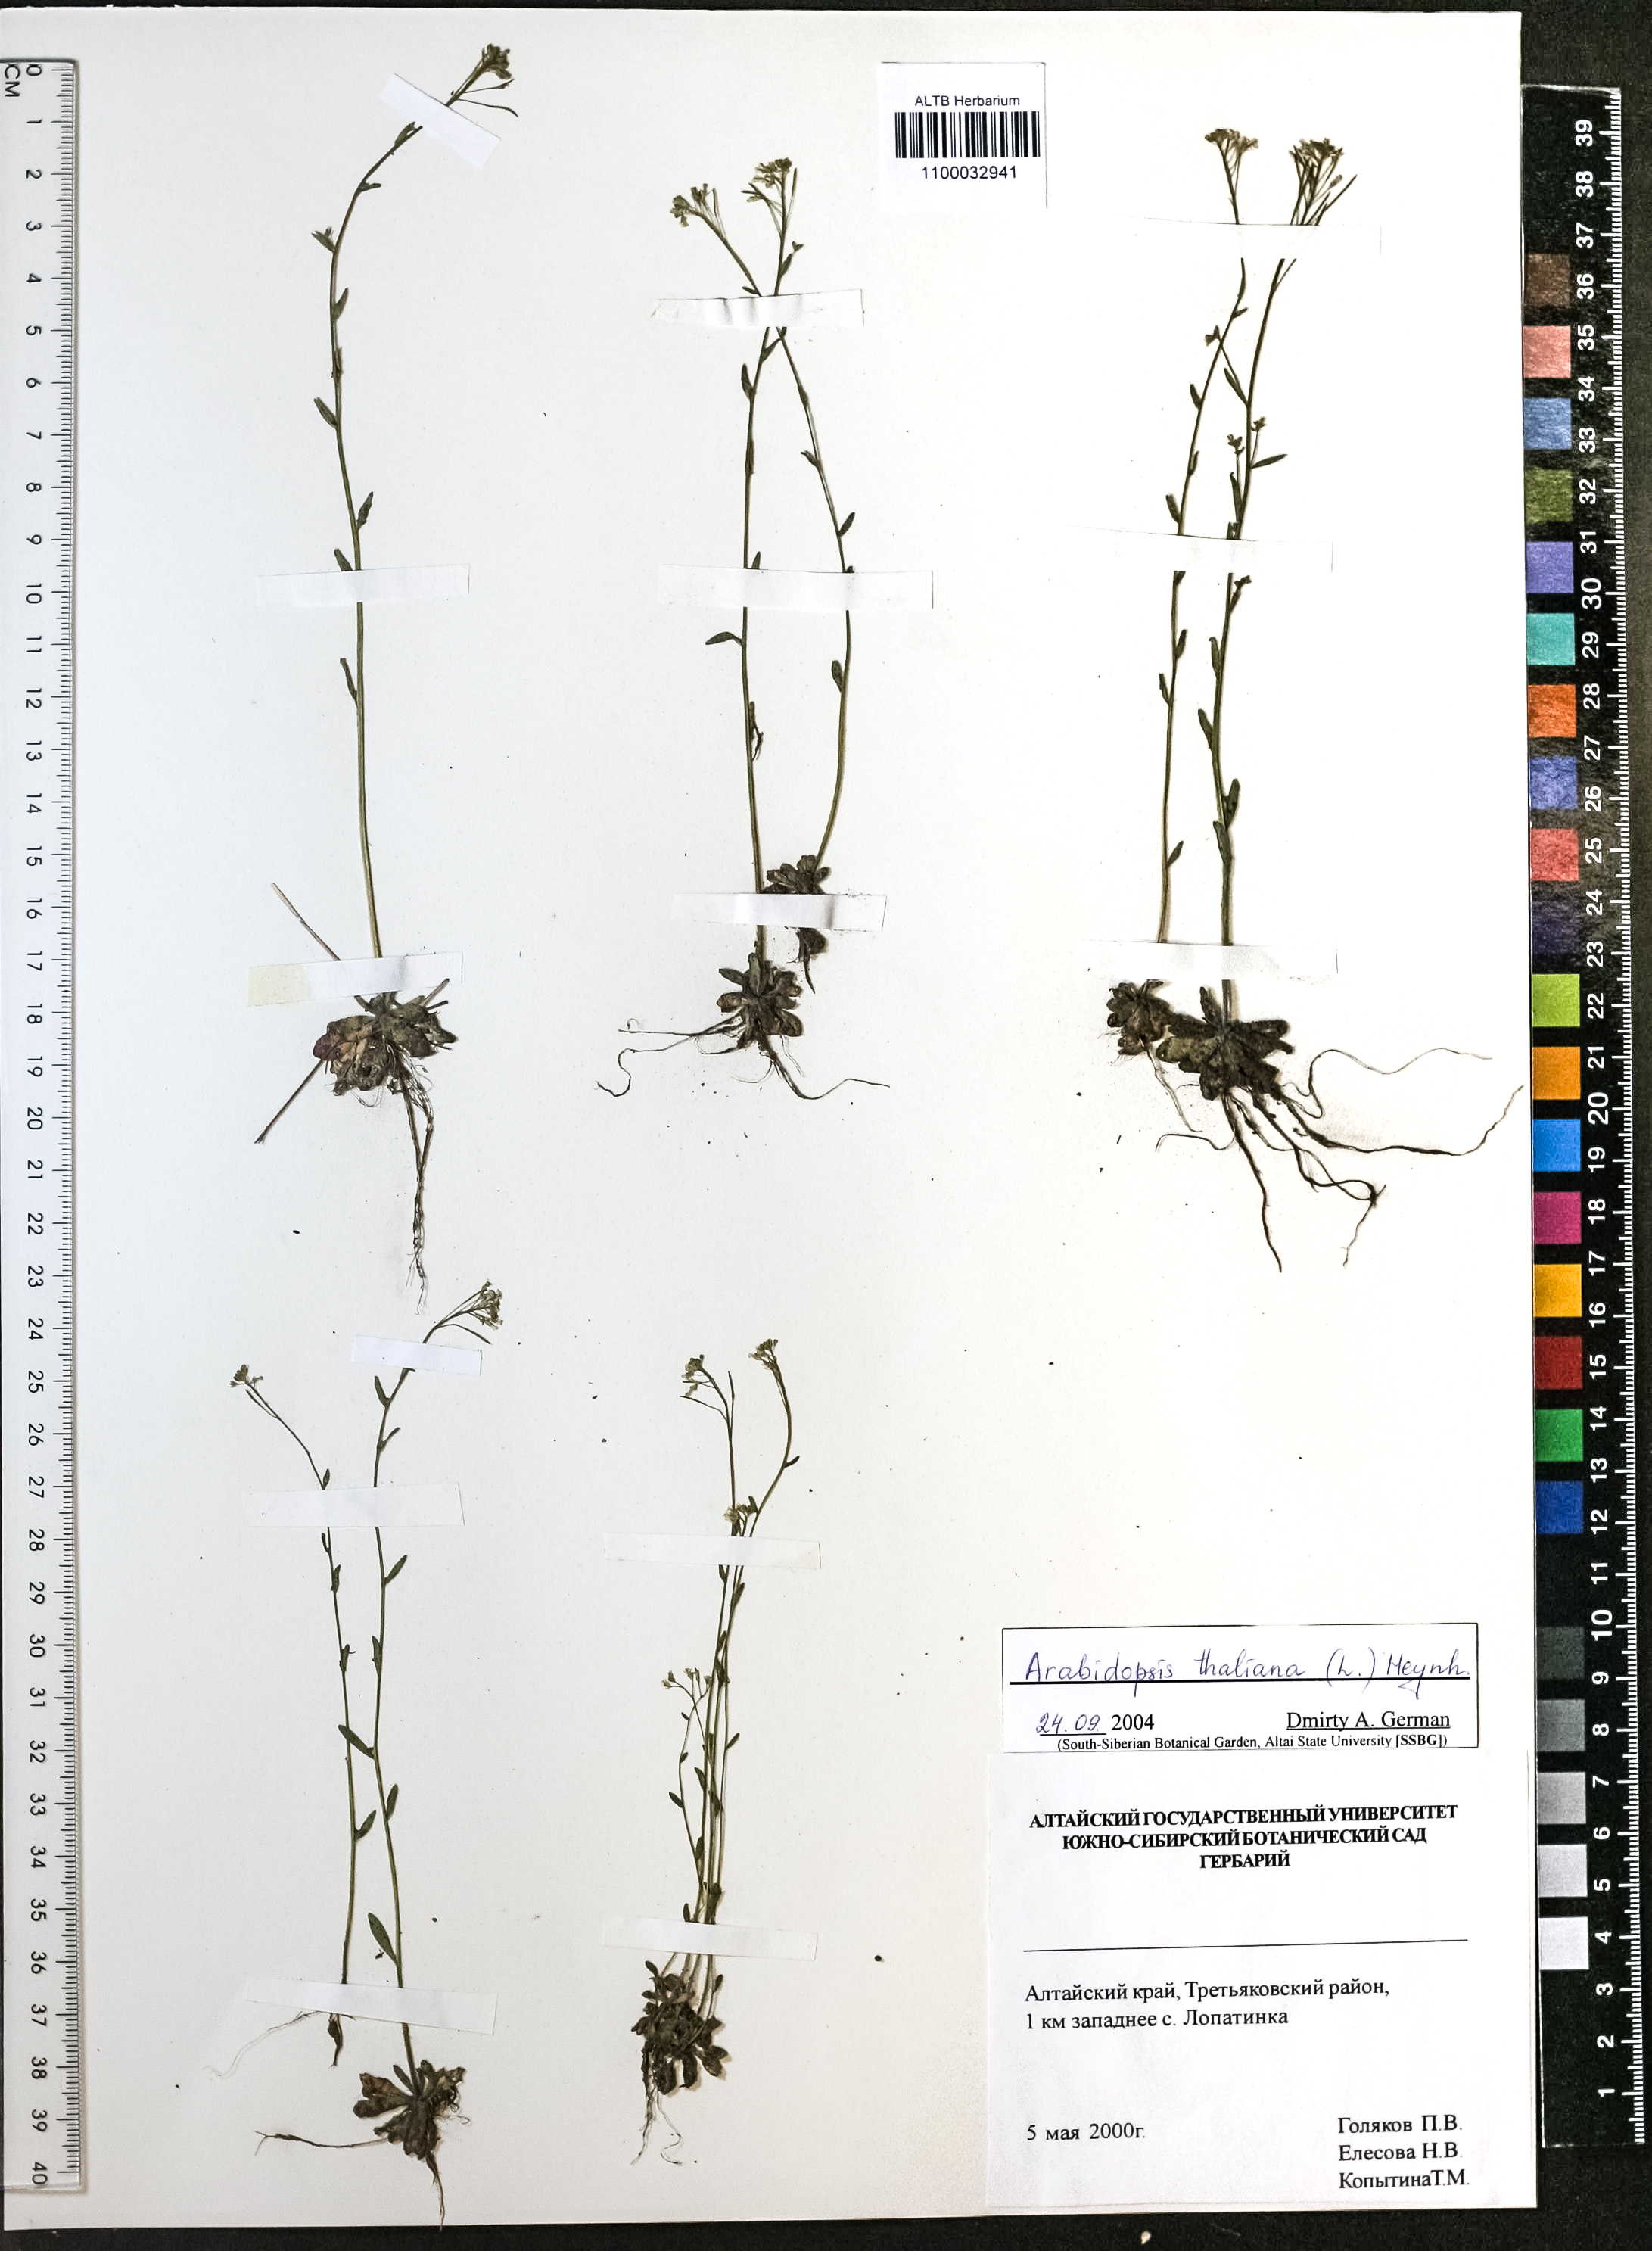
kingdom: Plantae
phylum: Tracheophyta
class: Magnoliopsida
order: Brassicales
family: Brassicaceae
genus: Arabidopsis
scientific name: Arabidopsis thaliana
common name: Thale cress
